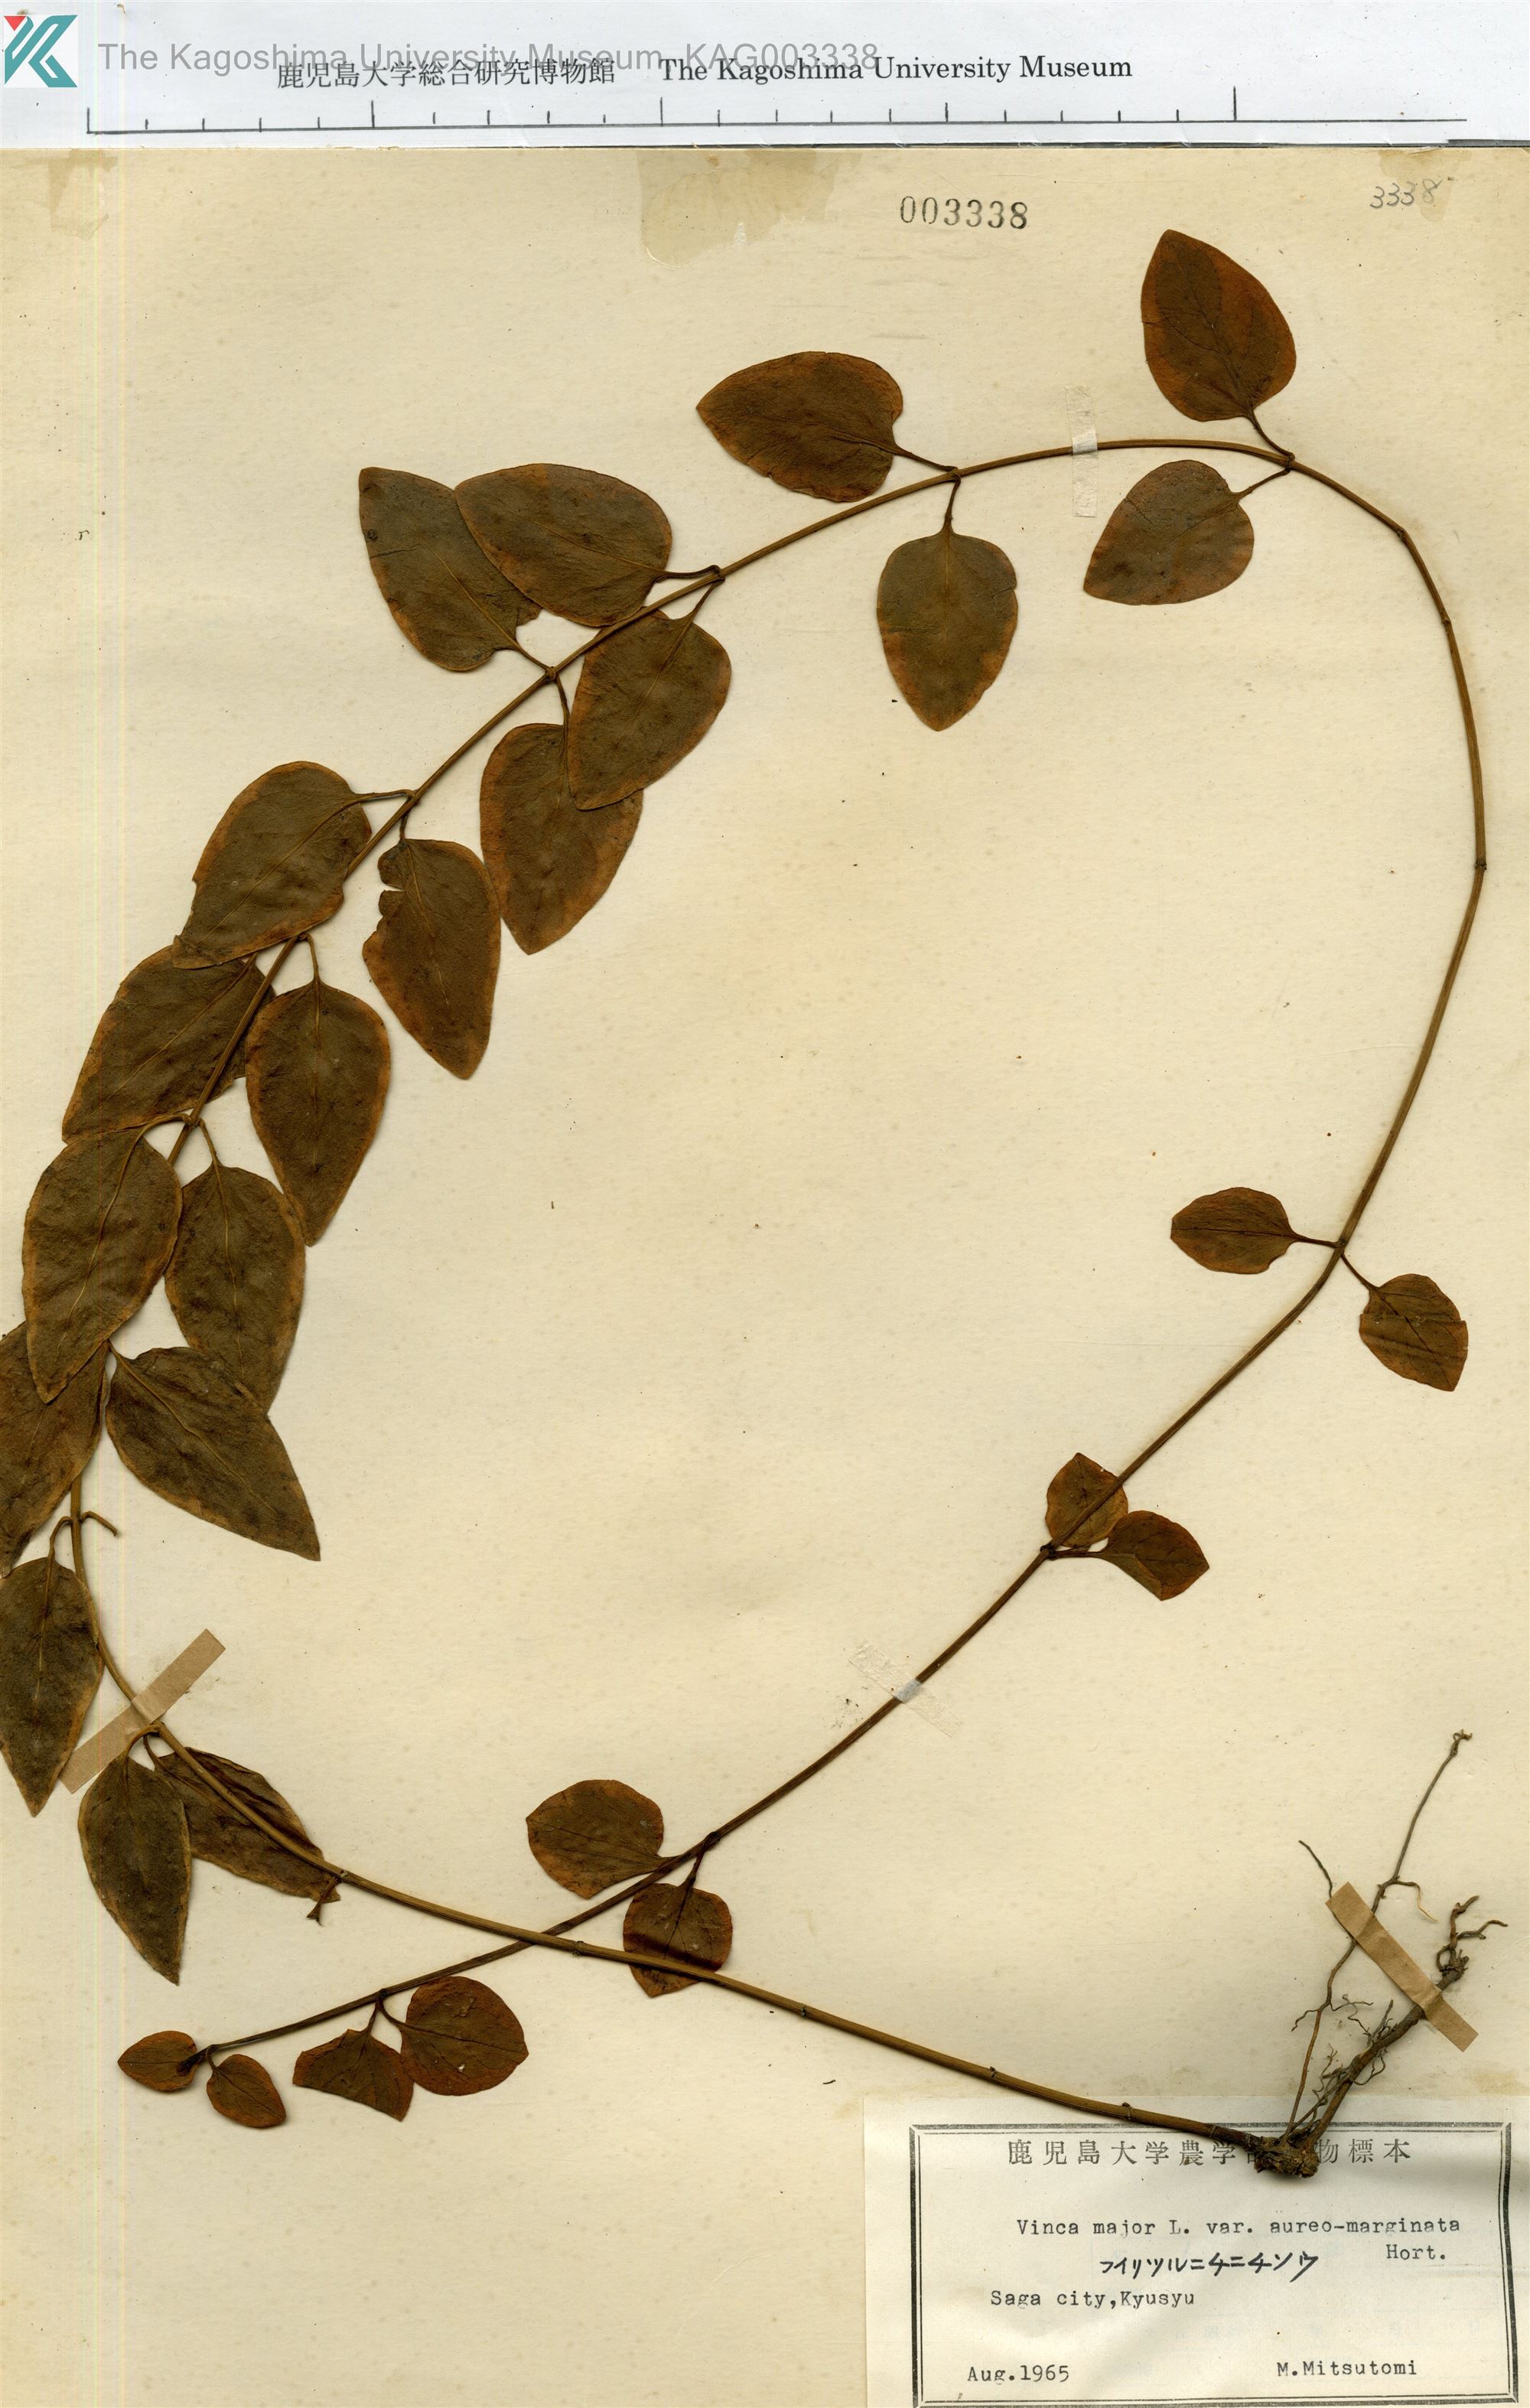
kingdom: Plantae
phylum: Tracheophyta
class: Magnoliopsida
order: Gentianales
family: Apocynaceae
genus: Vinca
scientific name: Vinca major
